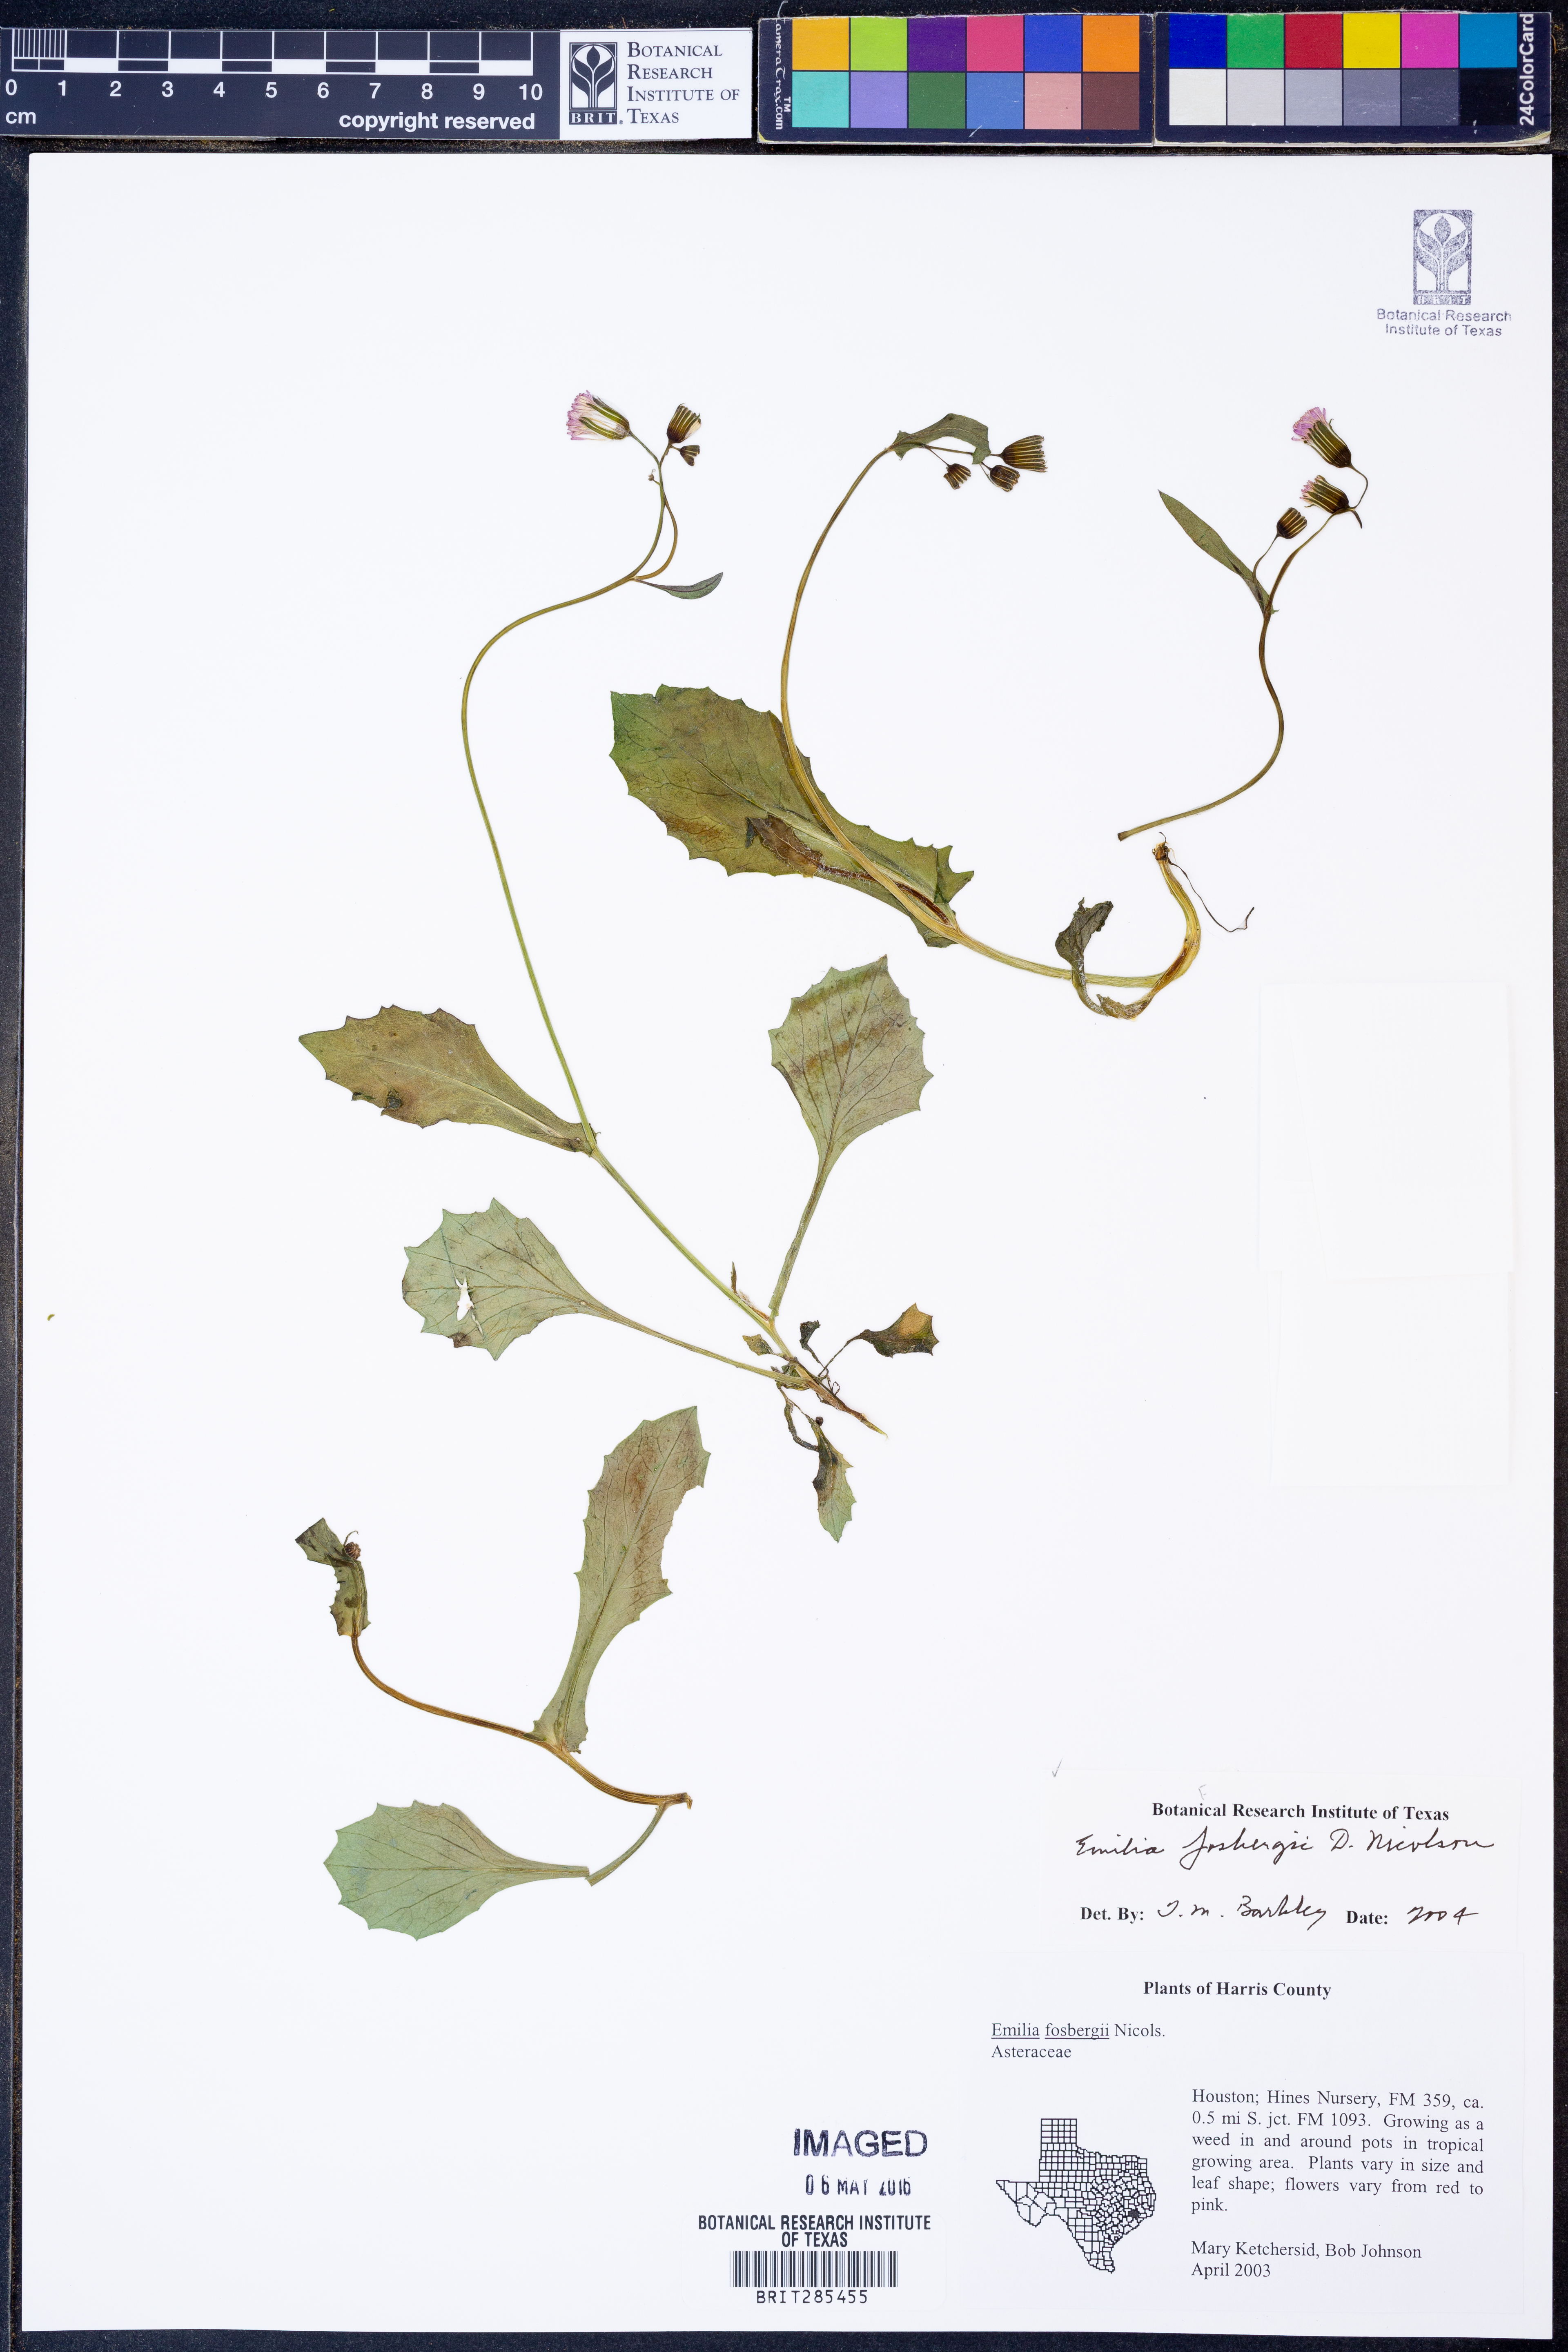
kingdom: Plantae
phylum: Tracheophyta
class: Magnoliopsida
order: Asterales
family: Asteraceae
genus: Emilia
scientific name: Emilia fosbergii
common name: Florida tasselflower
